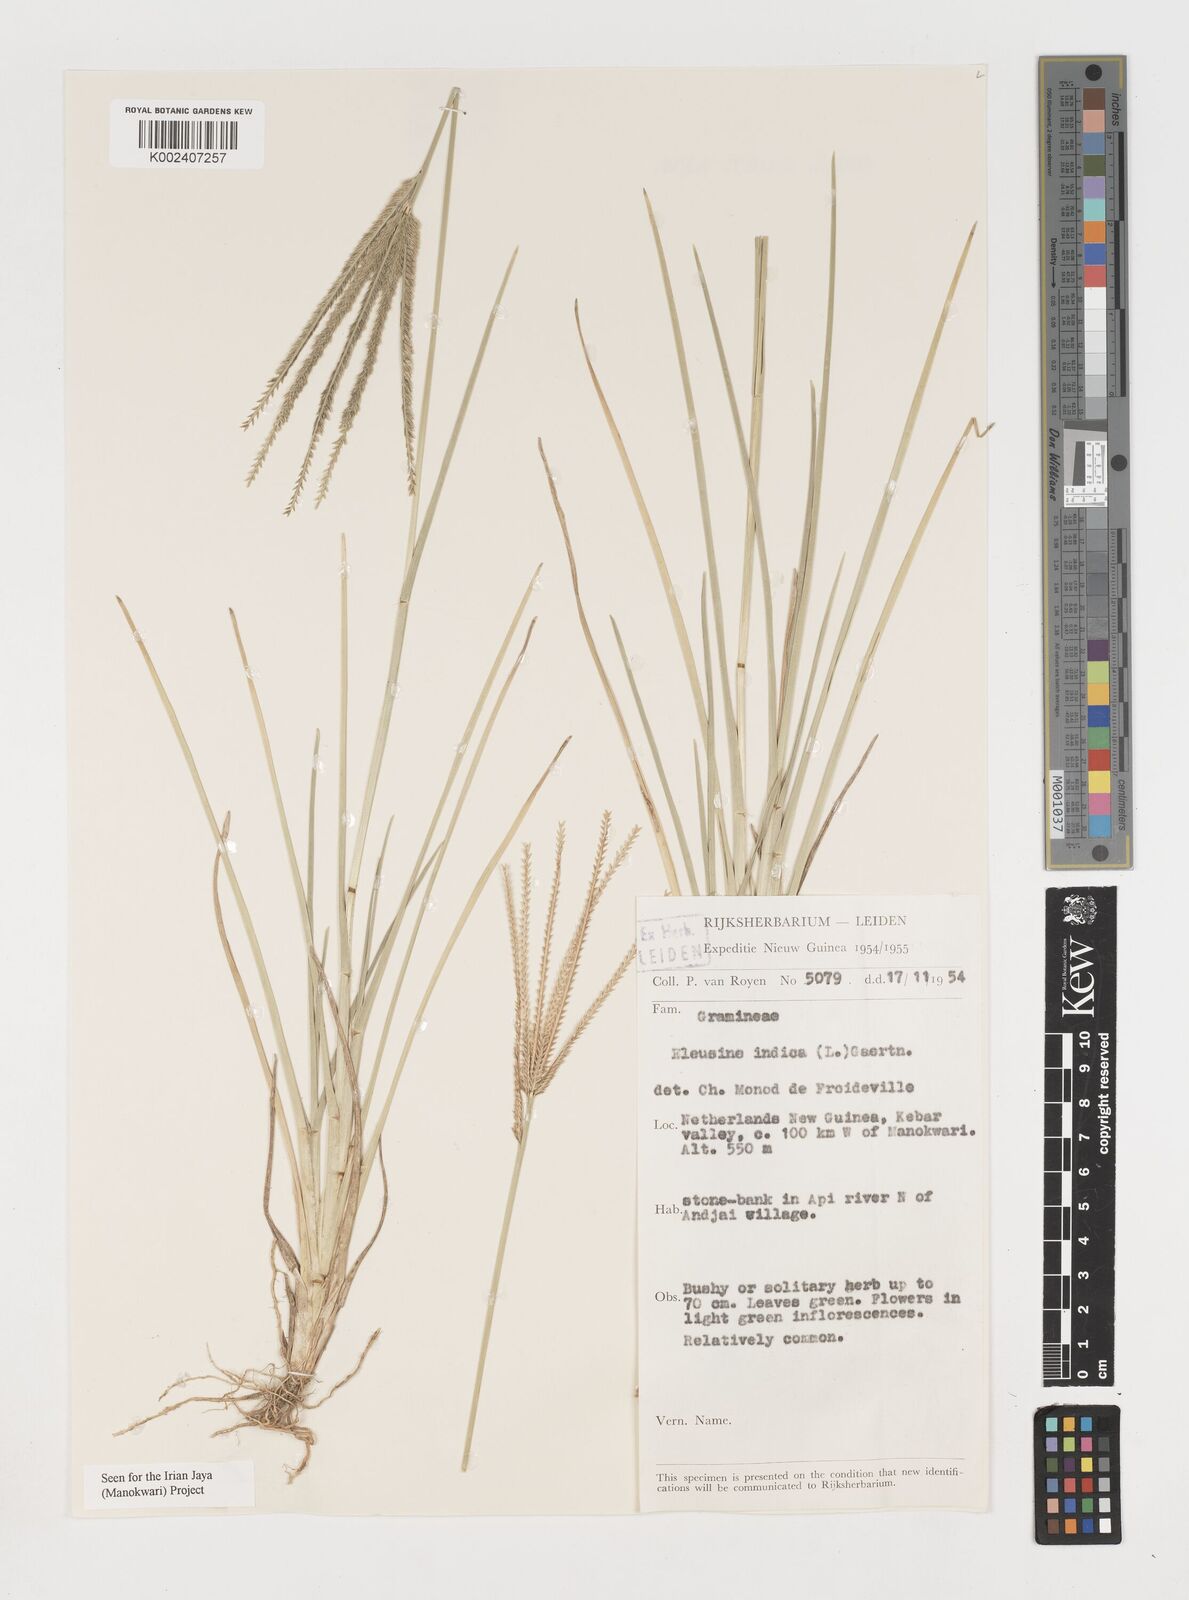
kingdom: Plantae
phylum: Tracheophyta
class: Liliopsida
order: Poales
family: Poaceae
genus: Eleusine
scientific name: Eleusine indica
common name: Yard-grass
